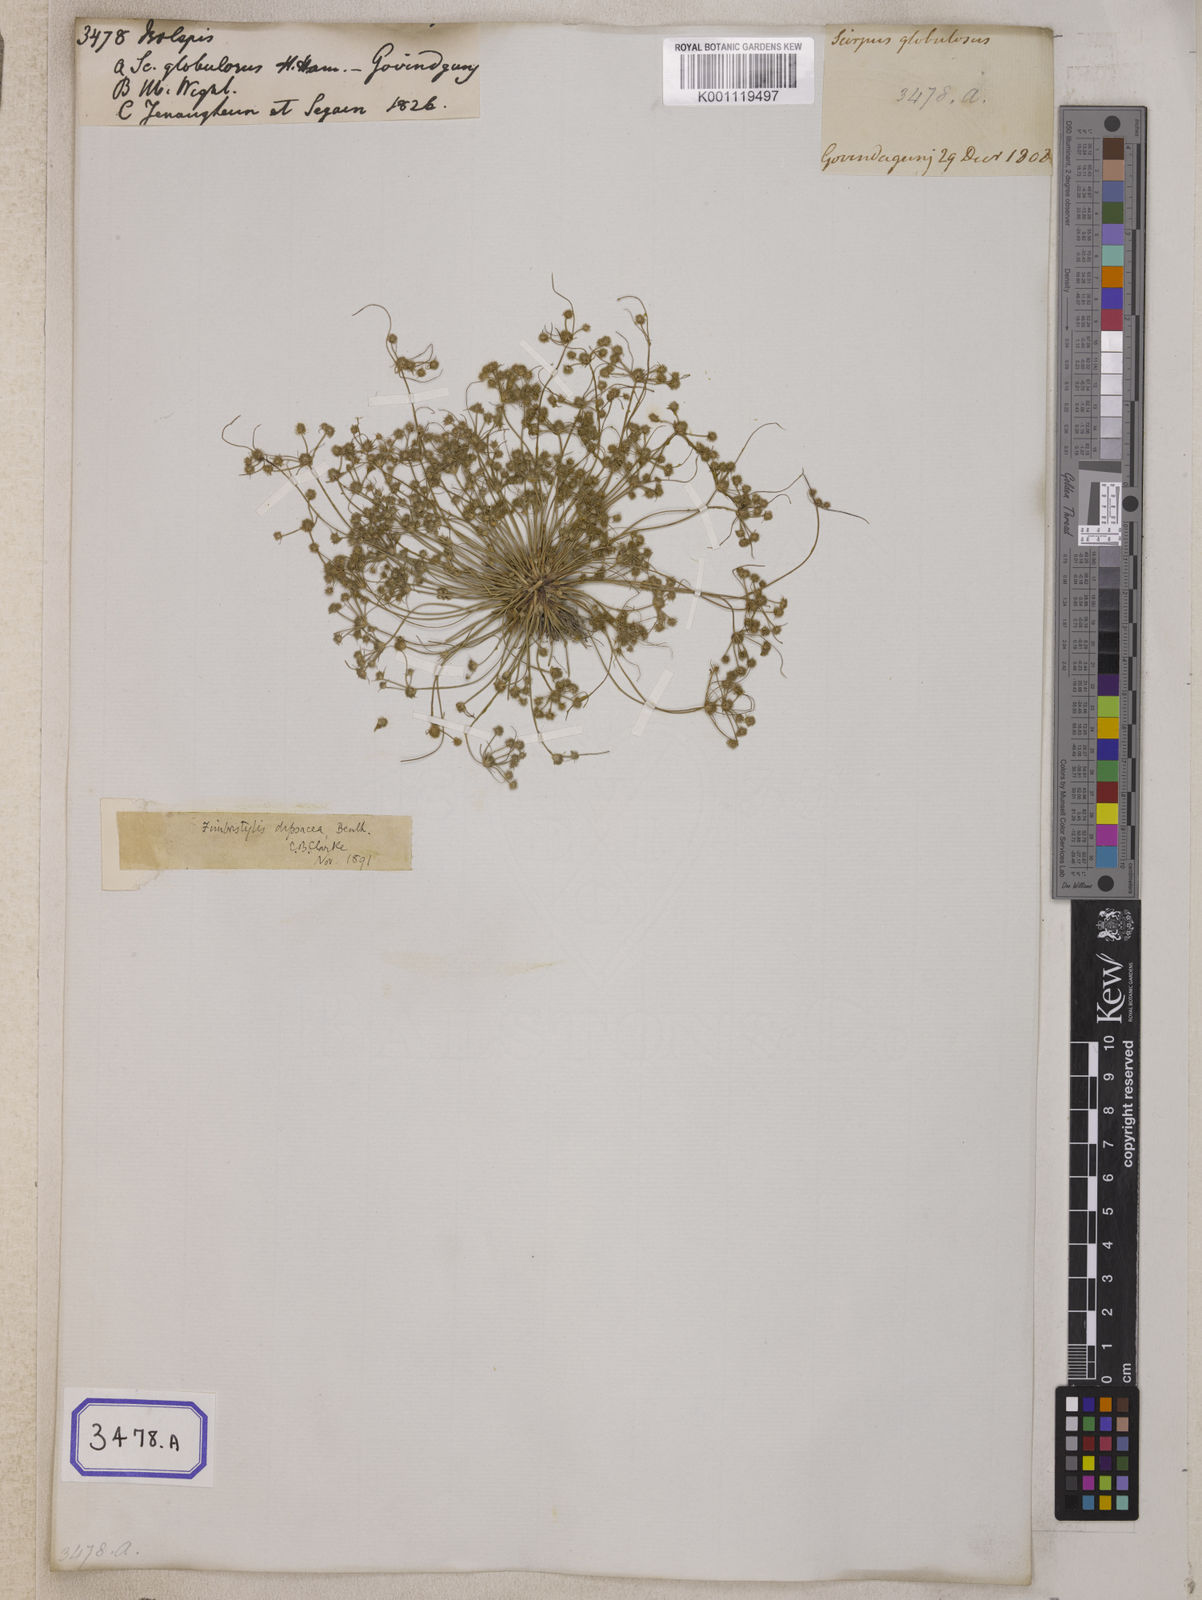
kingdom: Plantae
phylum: Tracheophyta
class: Liliopsida
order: Poales
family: Cyperaceae
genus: Isolepis
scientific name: Isolepis
